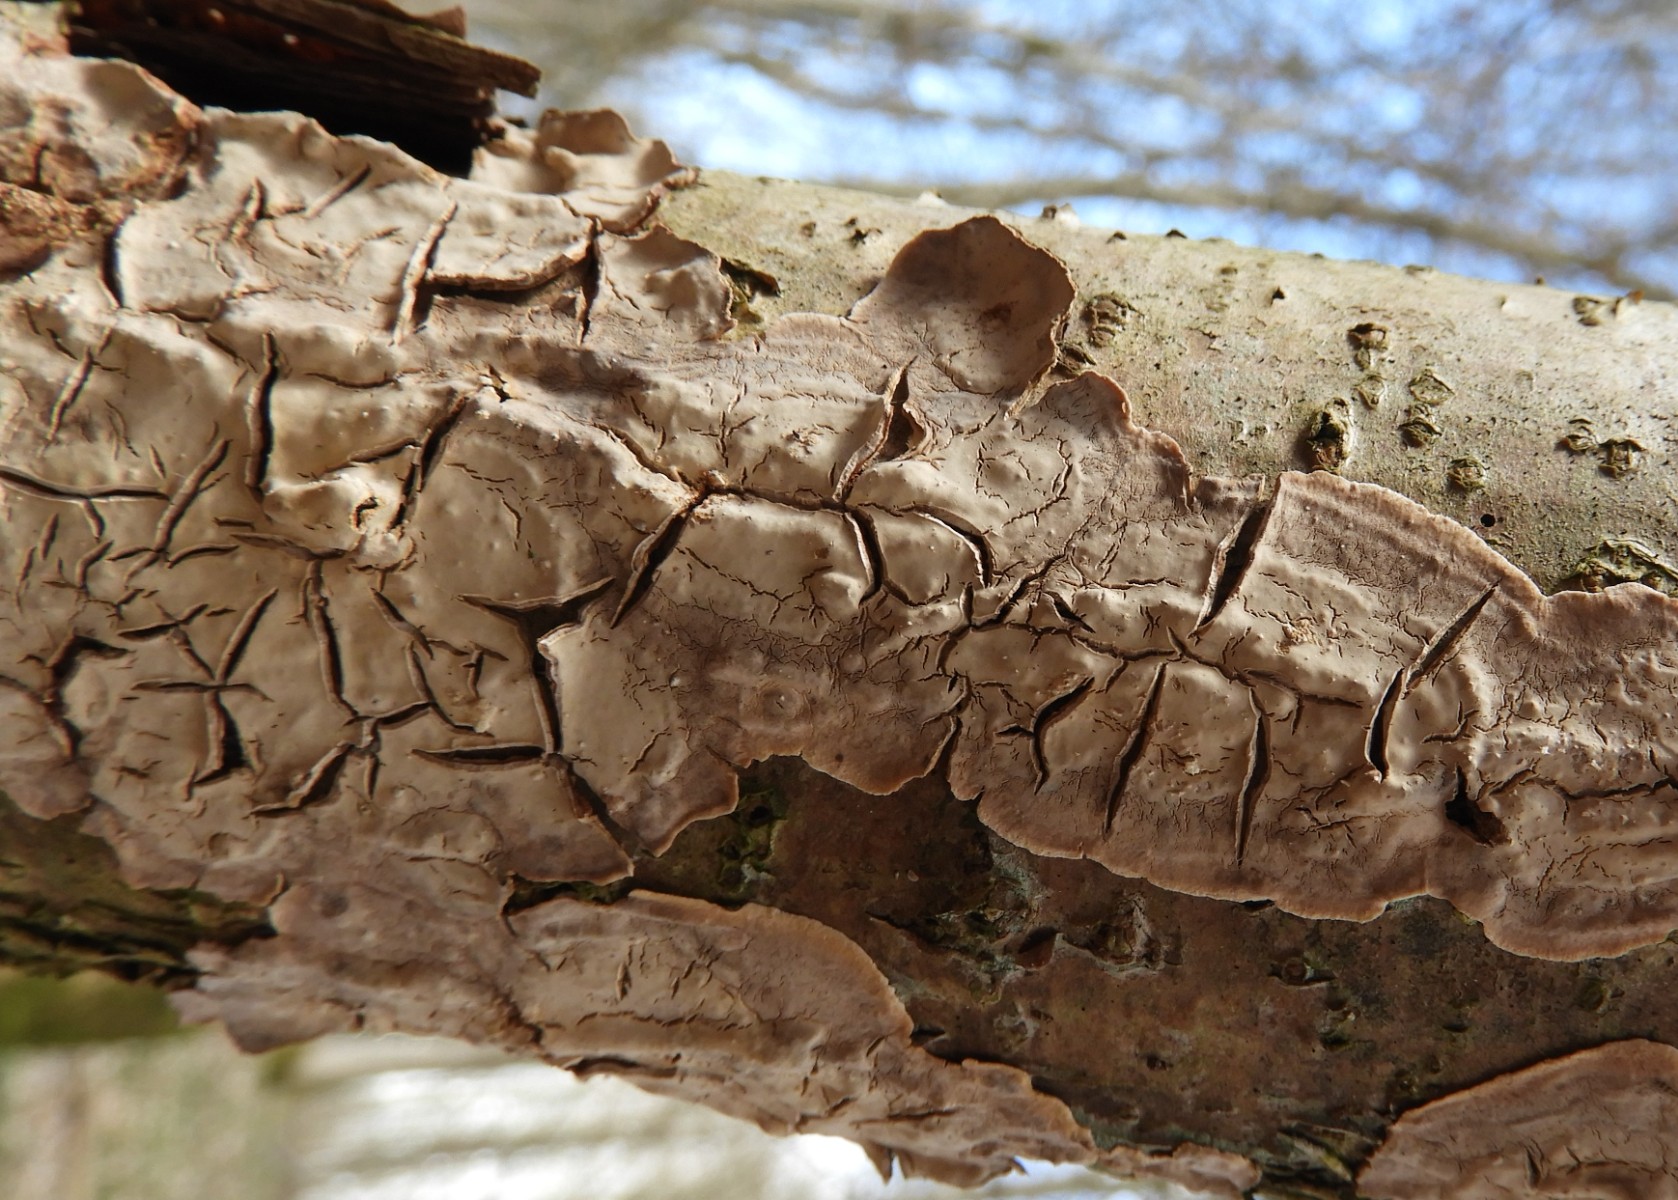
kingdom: Fungi
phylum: Basidiomycota
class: Agaricomycetes
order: Agaricales
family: Physalacriaceae
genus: Cylindrobasidium
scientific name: Cylindrobasidium evolvens
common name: sprækkehinde
